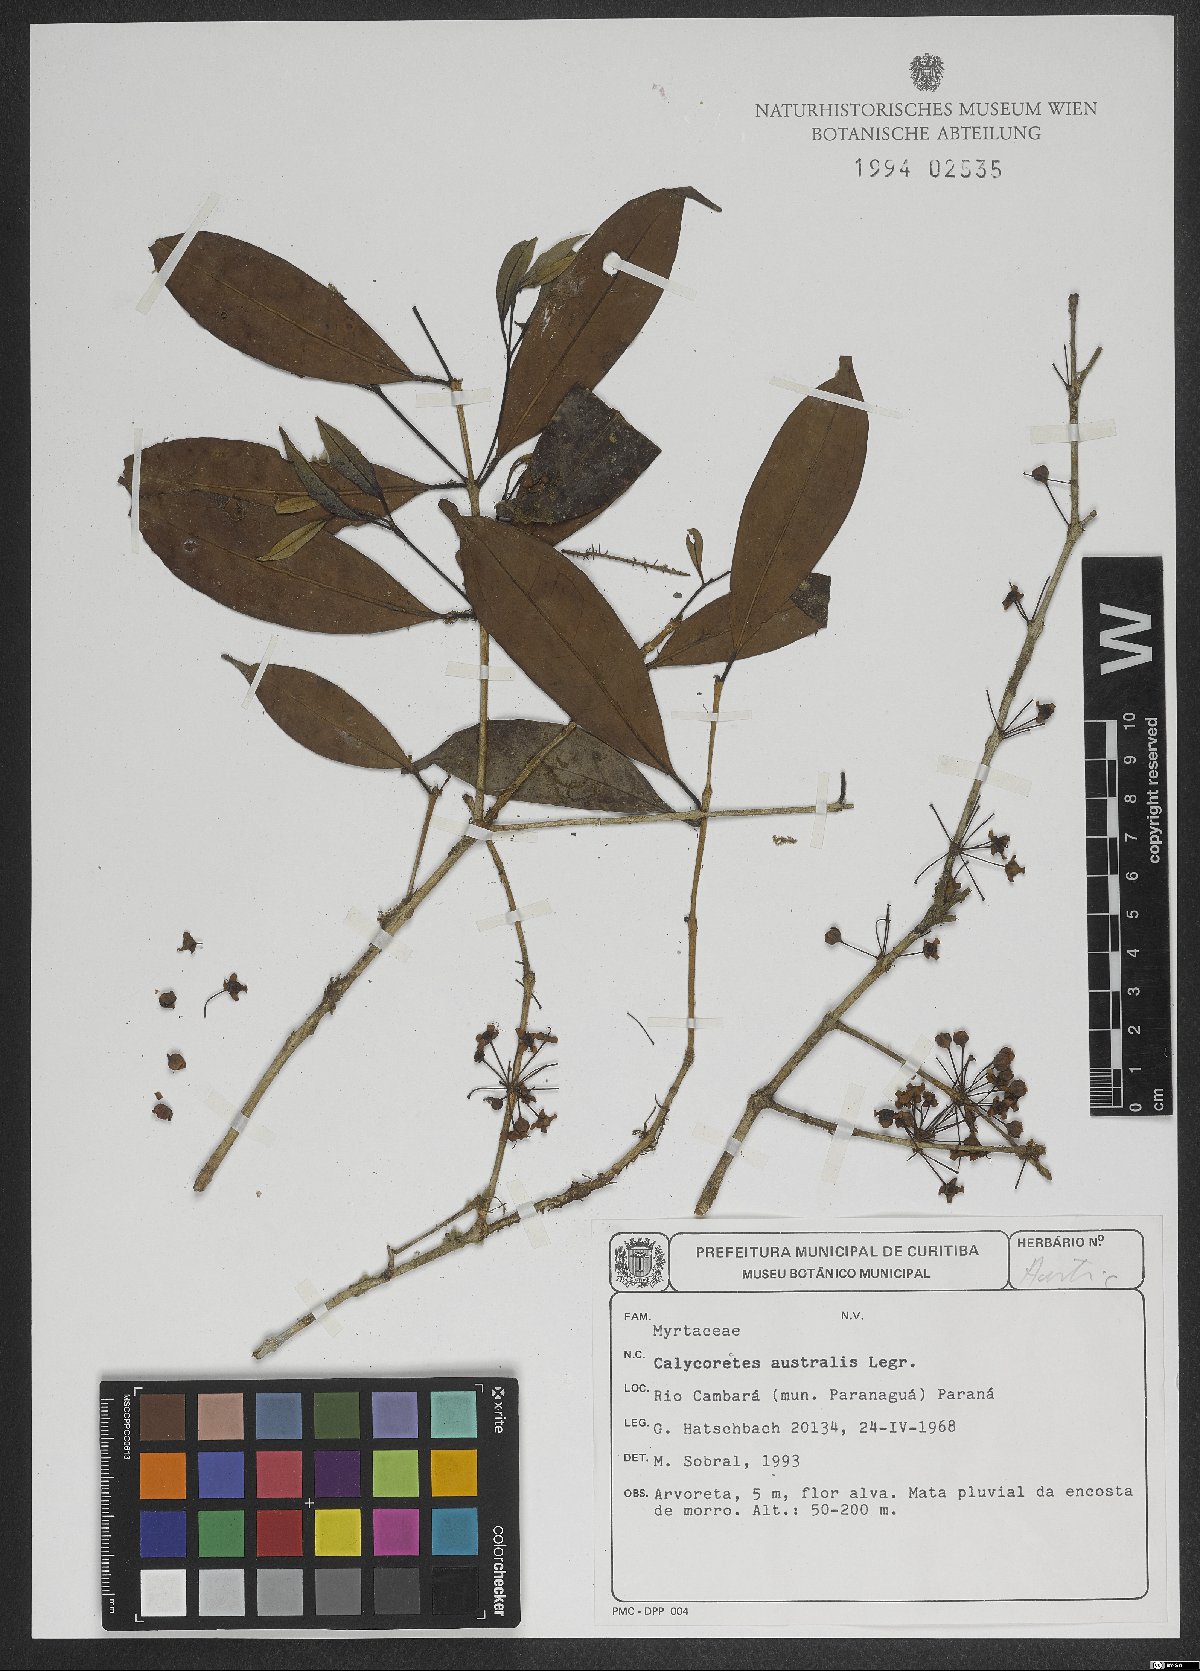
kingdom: Plantae
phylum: Tracheophyta
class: Magnoliopsida
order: Myrtales
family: Myrtaceae
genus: Eugenia
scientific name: Eugenia brevistyla
